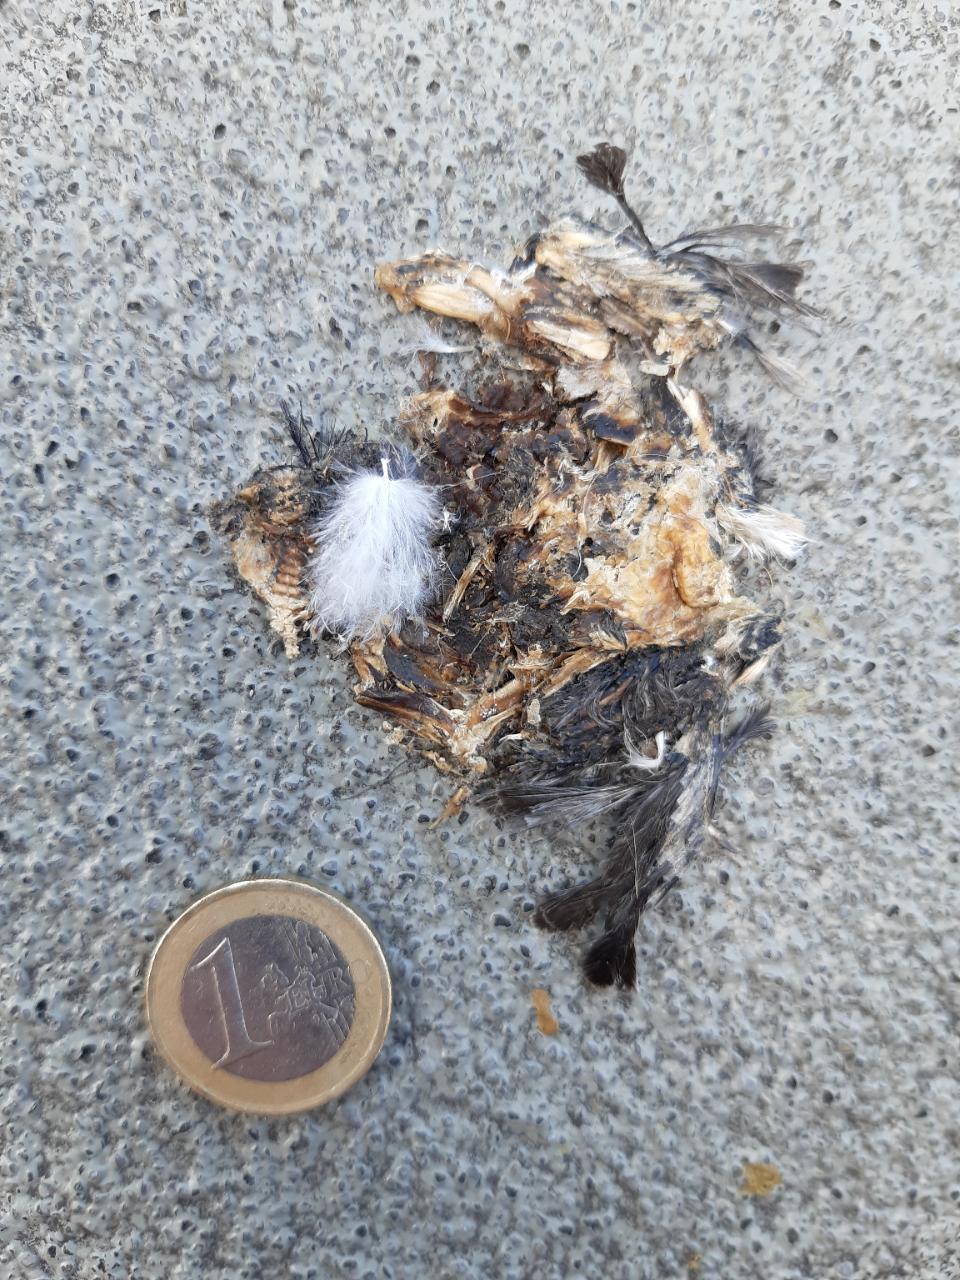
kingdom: Animalia
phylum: Chordata
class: Aves
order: Passeriformes
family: Passeridae
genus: Passer
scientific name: Passer domesticus
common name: House sparrow
